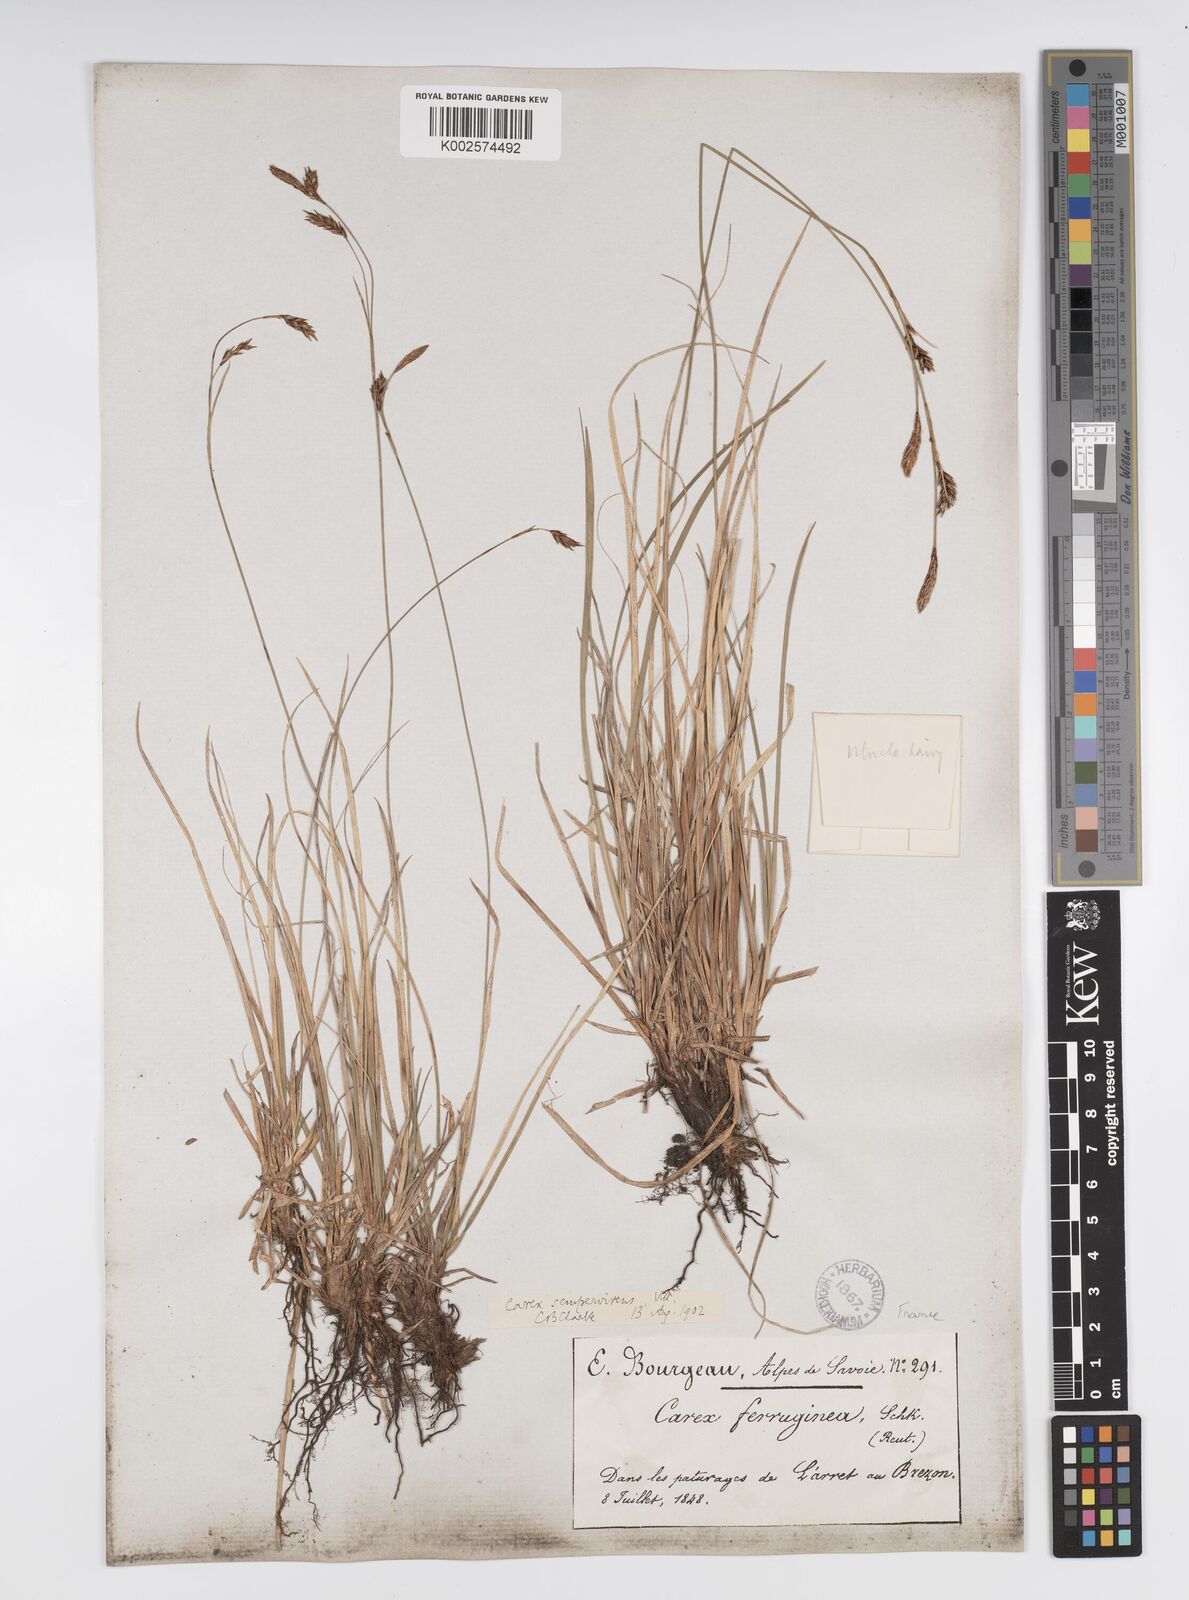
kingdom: Plantae
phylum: Tracheophyta
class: Liliopsida
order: Poales
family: Cyperaceae
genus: Carex
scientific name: Carex sempervirens
